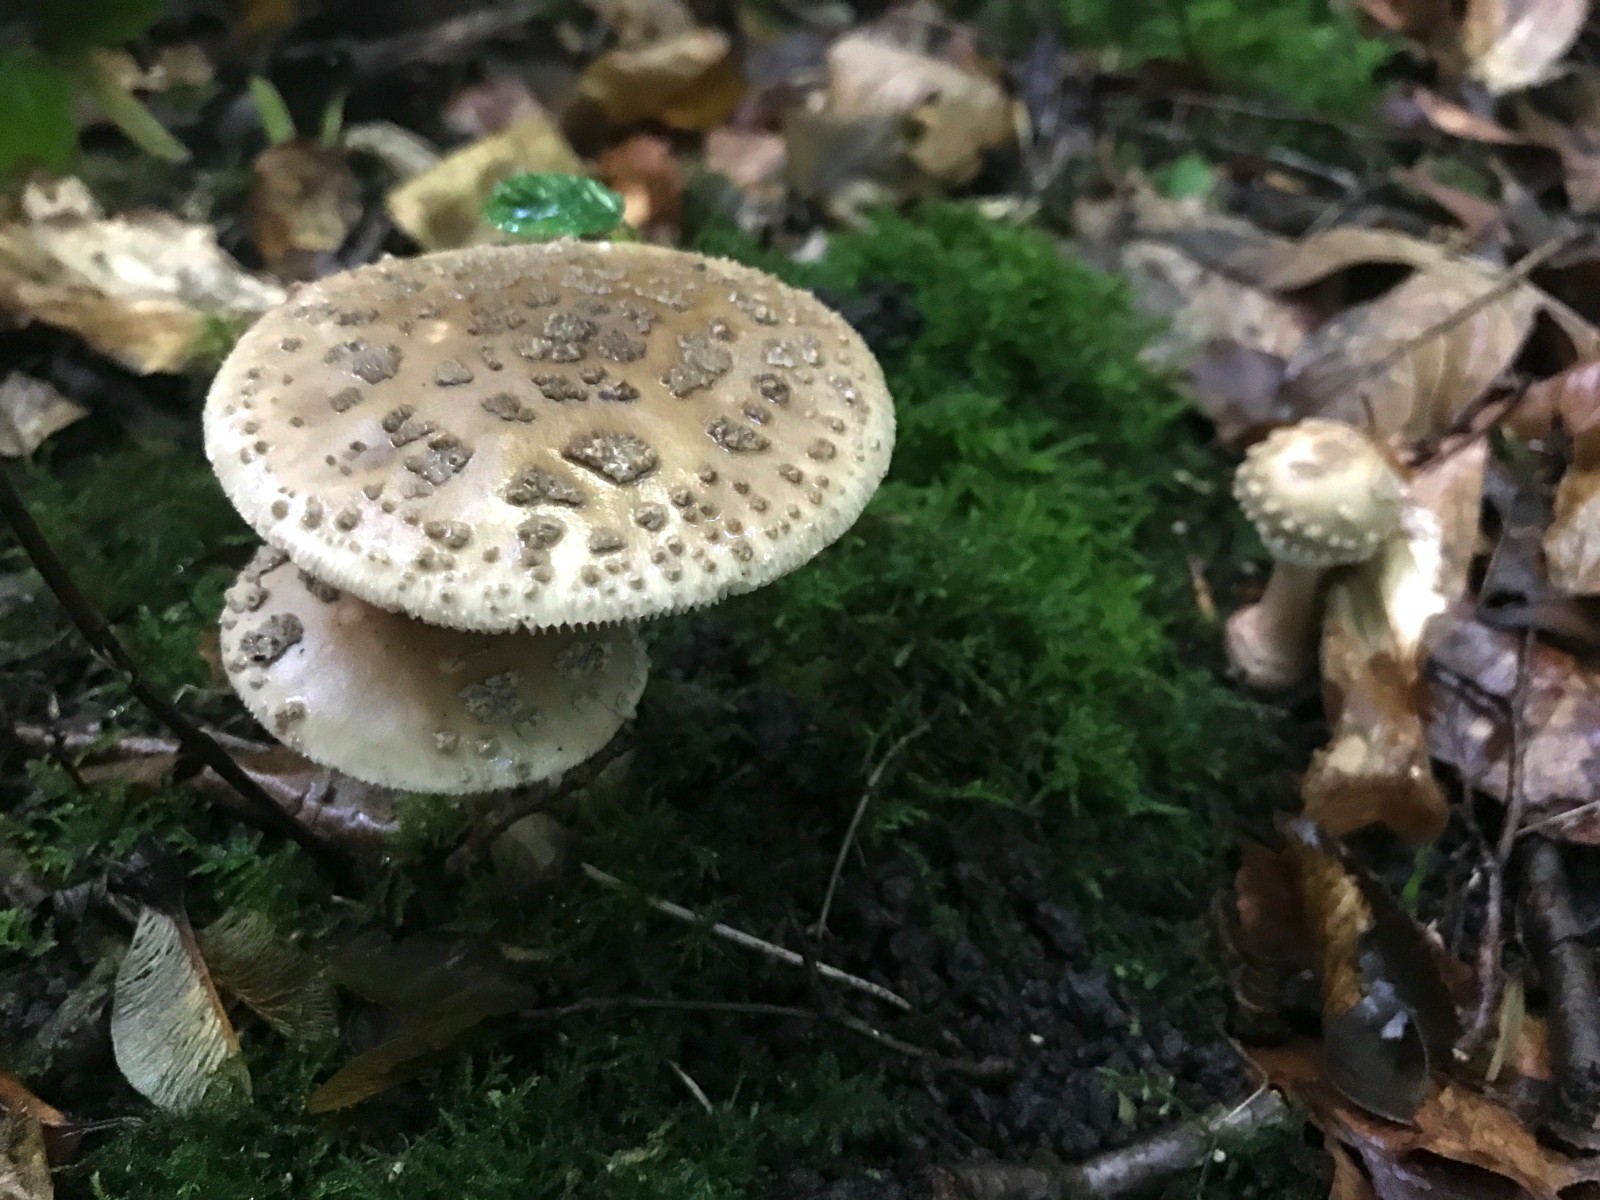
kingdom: Fungi
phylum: Basidiomycota
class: Agaricomycetes
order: Agaricales
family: Amanitaceae
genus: Amanita
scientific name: Amanita rubescens
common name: rødmende fluesvamp
